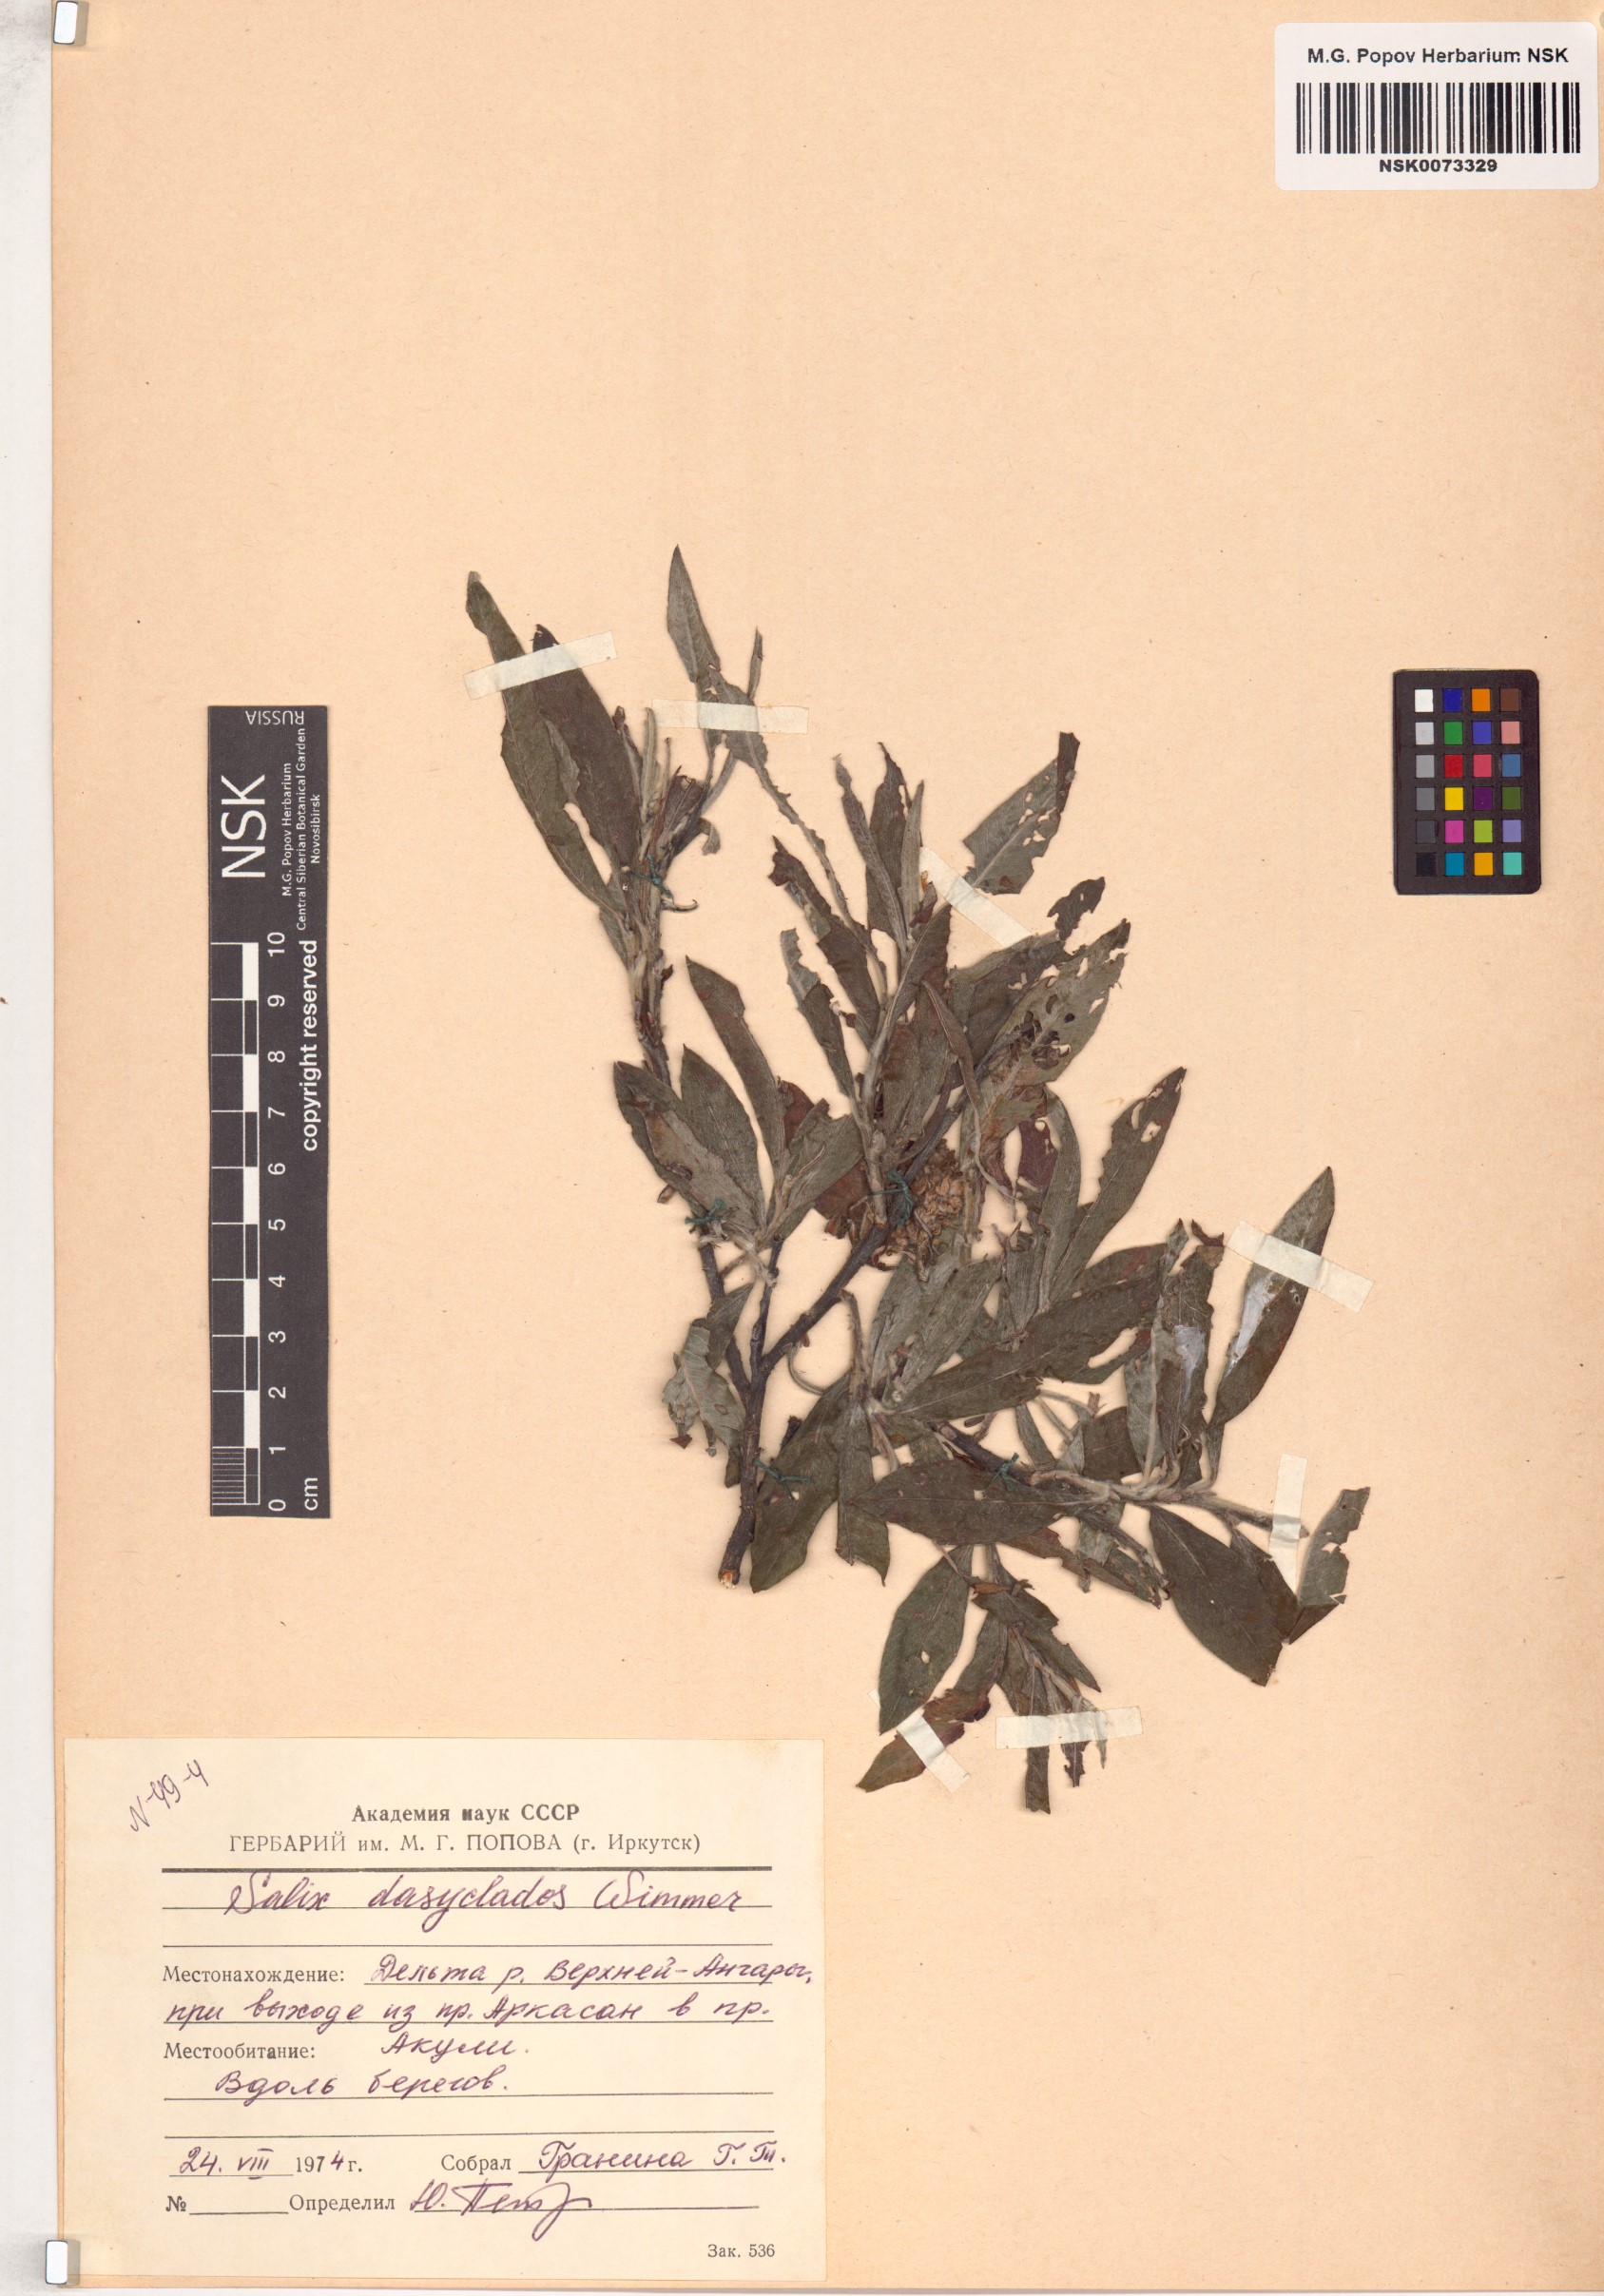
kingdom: Plantae
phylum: Tracheophyta
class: Magnoliopsida
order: Malpighiales
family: Salicaceae
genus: Salix
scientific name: Salix gmelinii
